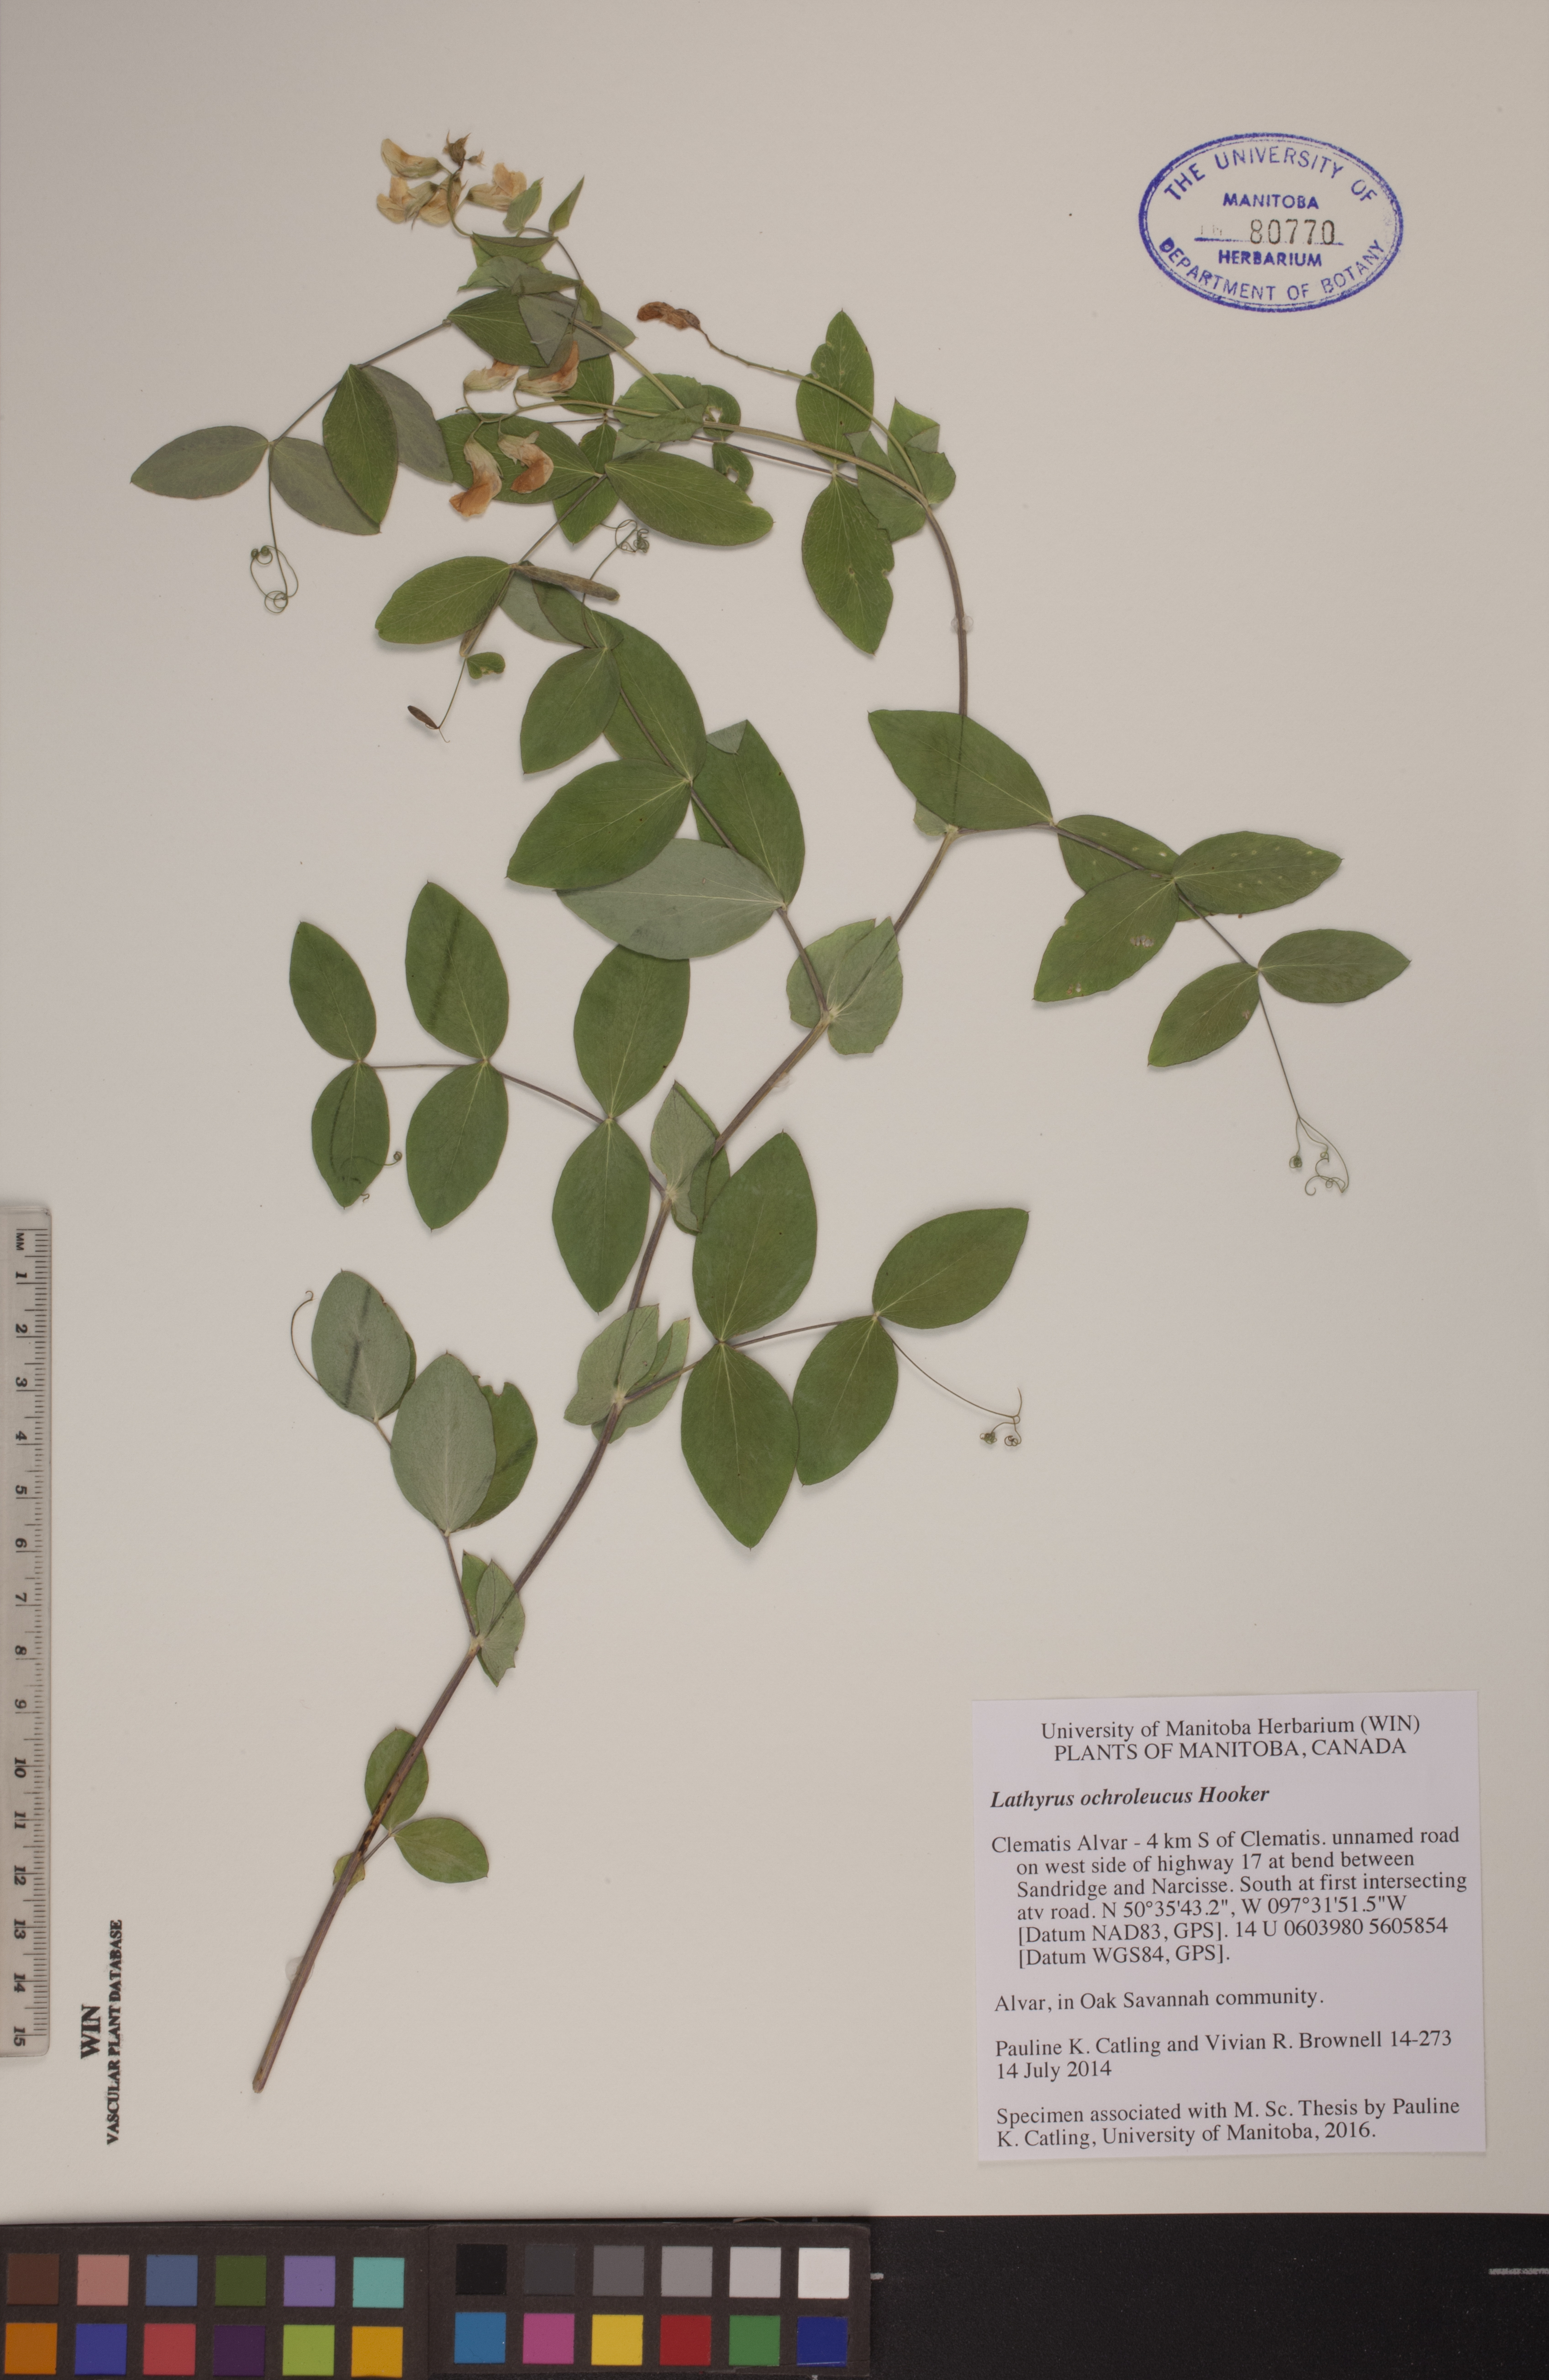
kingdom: Plantae
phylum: Tracheophyta
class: Magnoliopsida
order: Fabales
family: Fabaceae
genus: Lathyrus
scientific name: Lathyrus ochroleucus
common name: Pale vetchling
